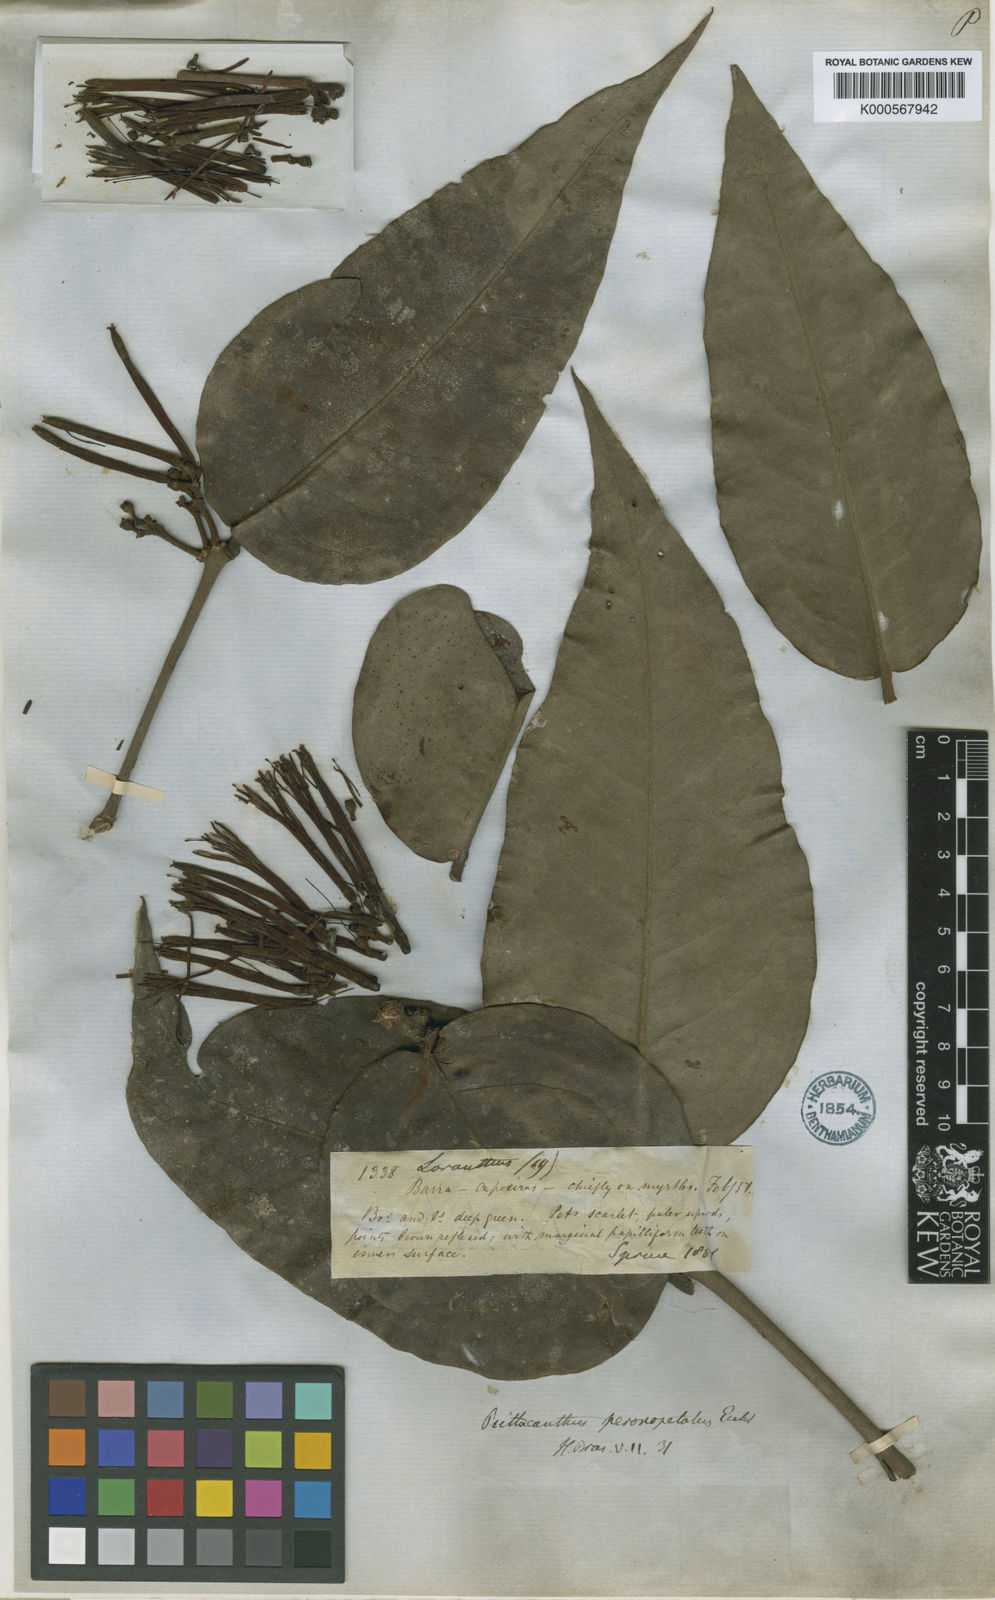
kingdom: Plantae
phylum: Tracheophyta
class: Magnoliopsida
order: Santalales
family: Loranthaceae
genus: Psittacanthus
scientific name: Psittacanthus peronopetalus
